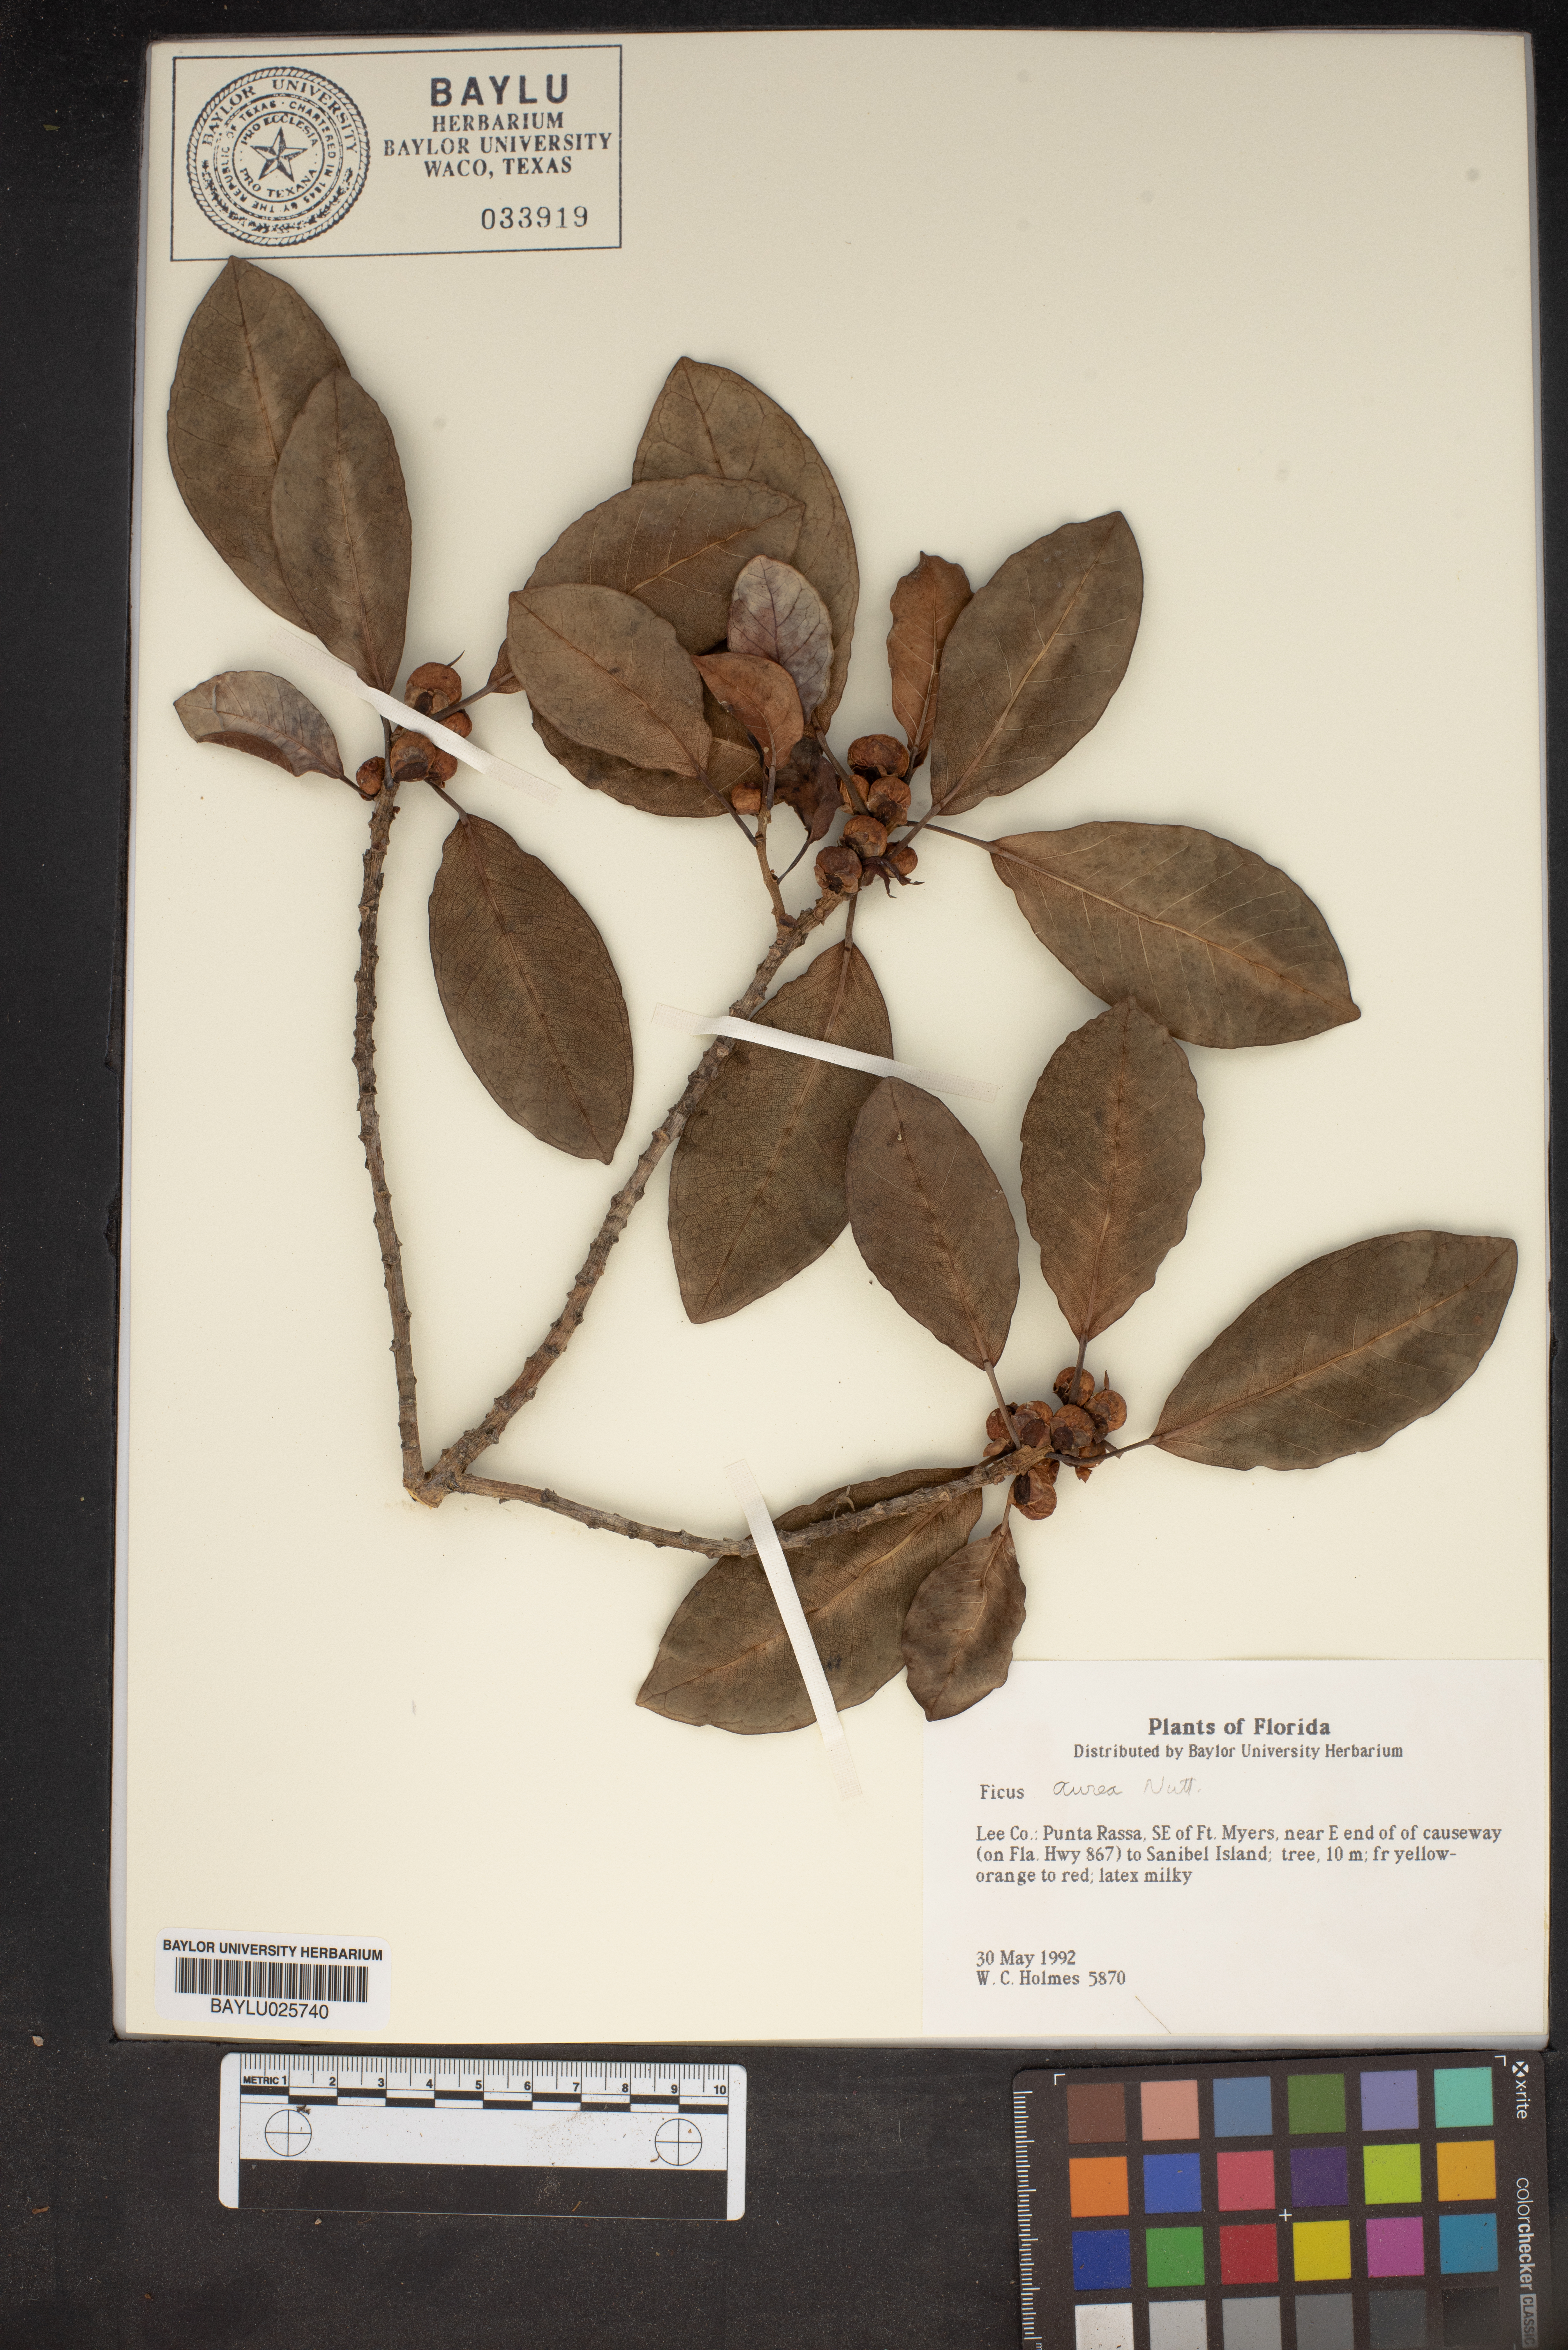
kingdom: Plantae
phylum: Tracheophyta
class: Magnoliopsida
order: Rosales
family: Moraceae
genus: Ficus
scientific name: Ficus aurea
